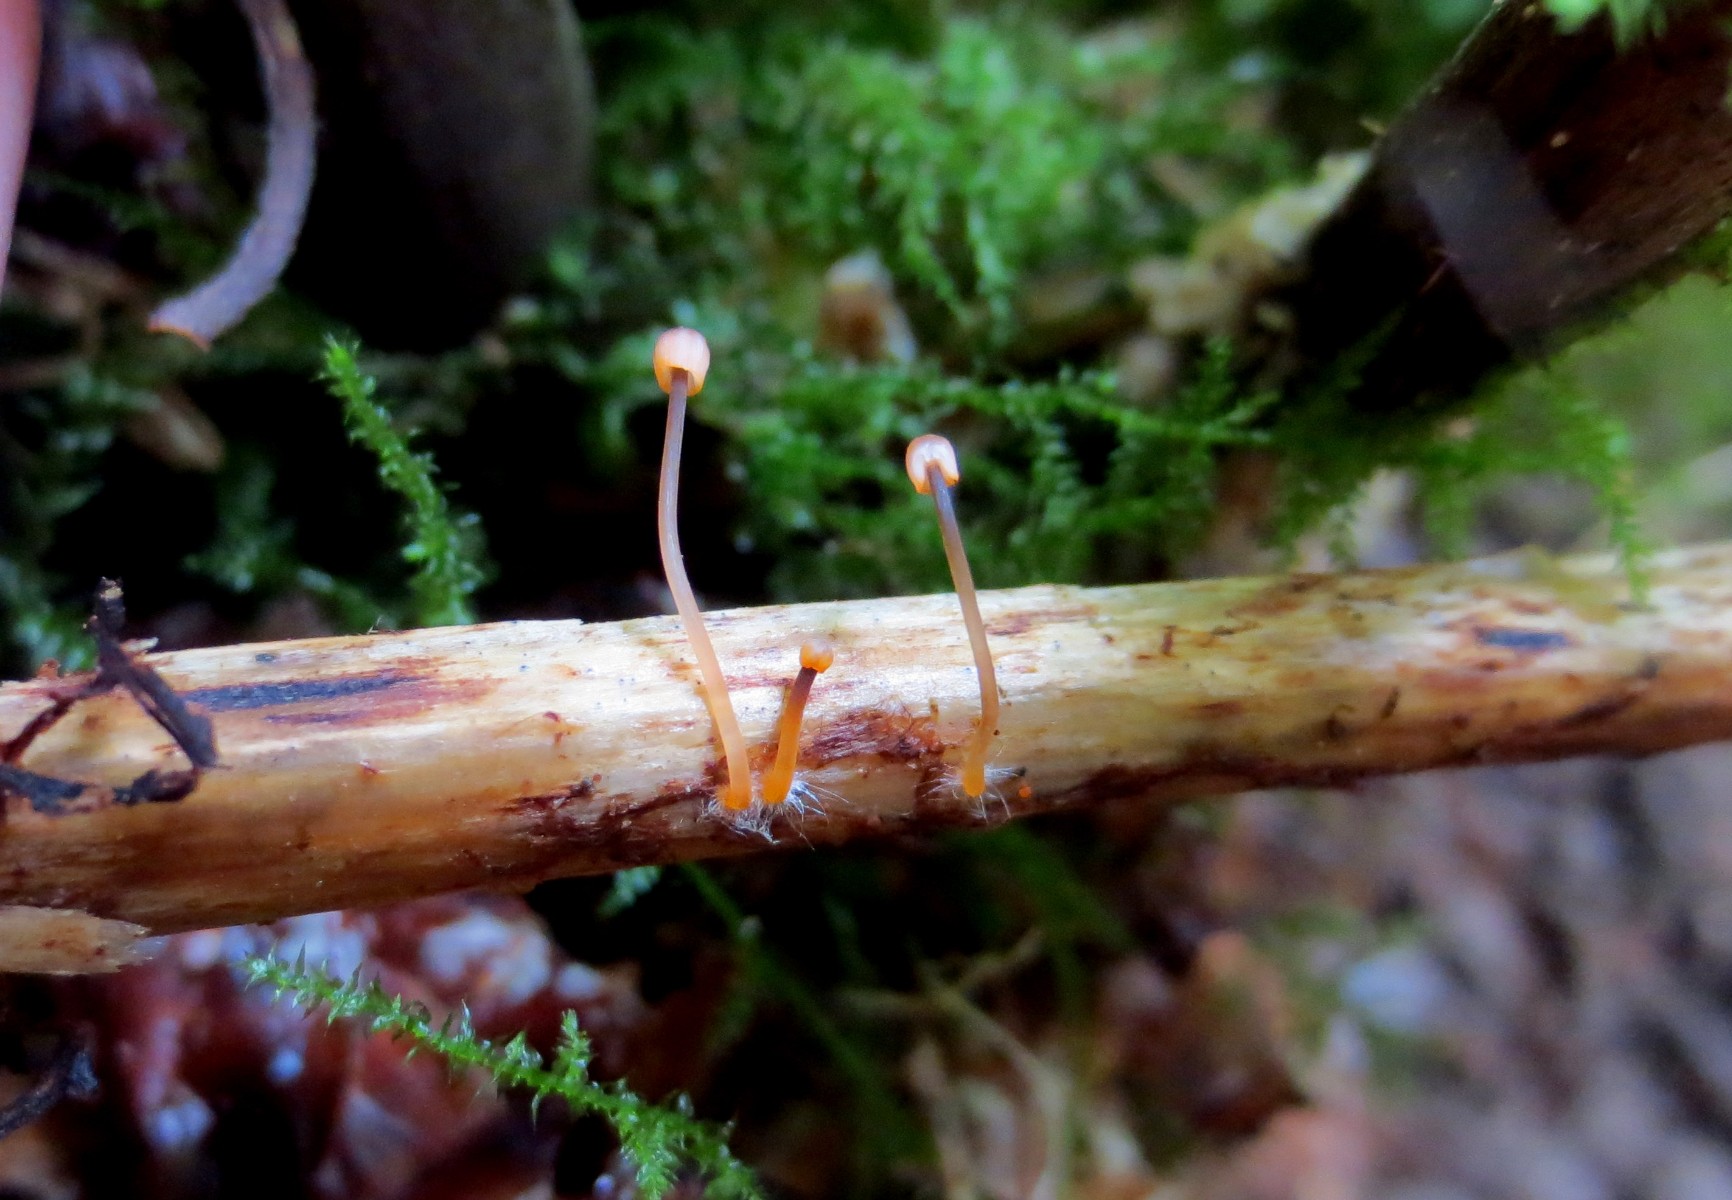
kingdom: Fungi
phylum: Basidiomycota
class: Agaricomycetes
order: Agaricales
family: Mycenaceae
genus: Mycena
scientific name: Mycena pterigena
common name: bregne-huesvamp
